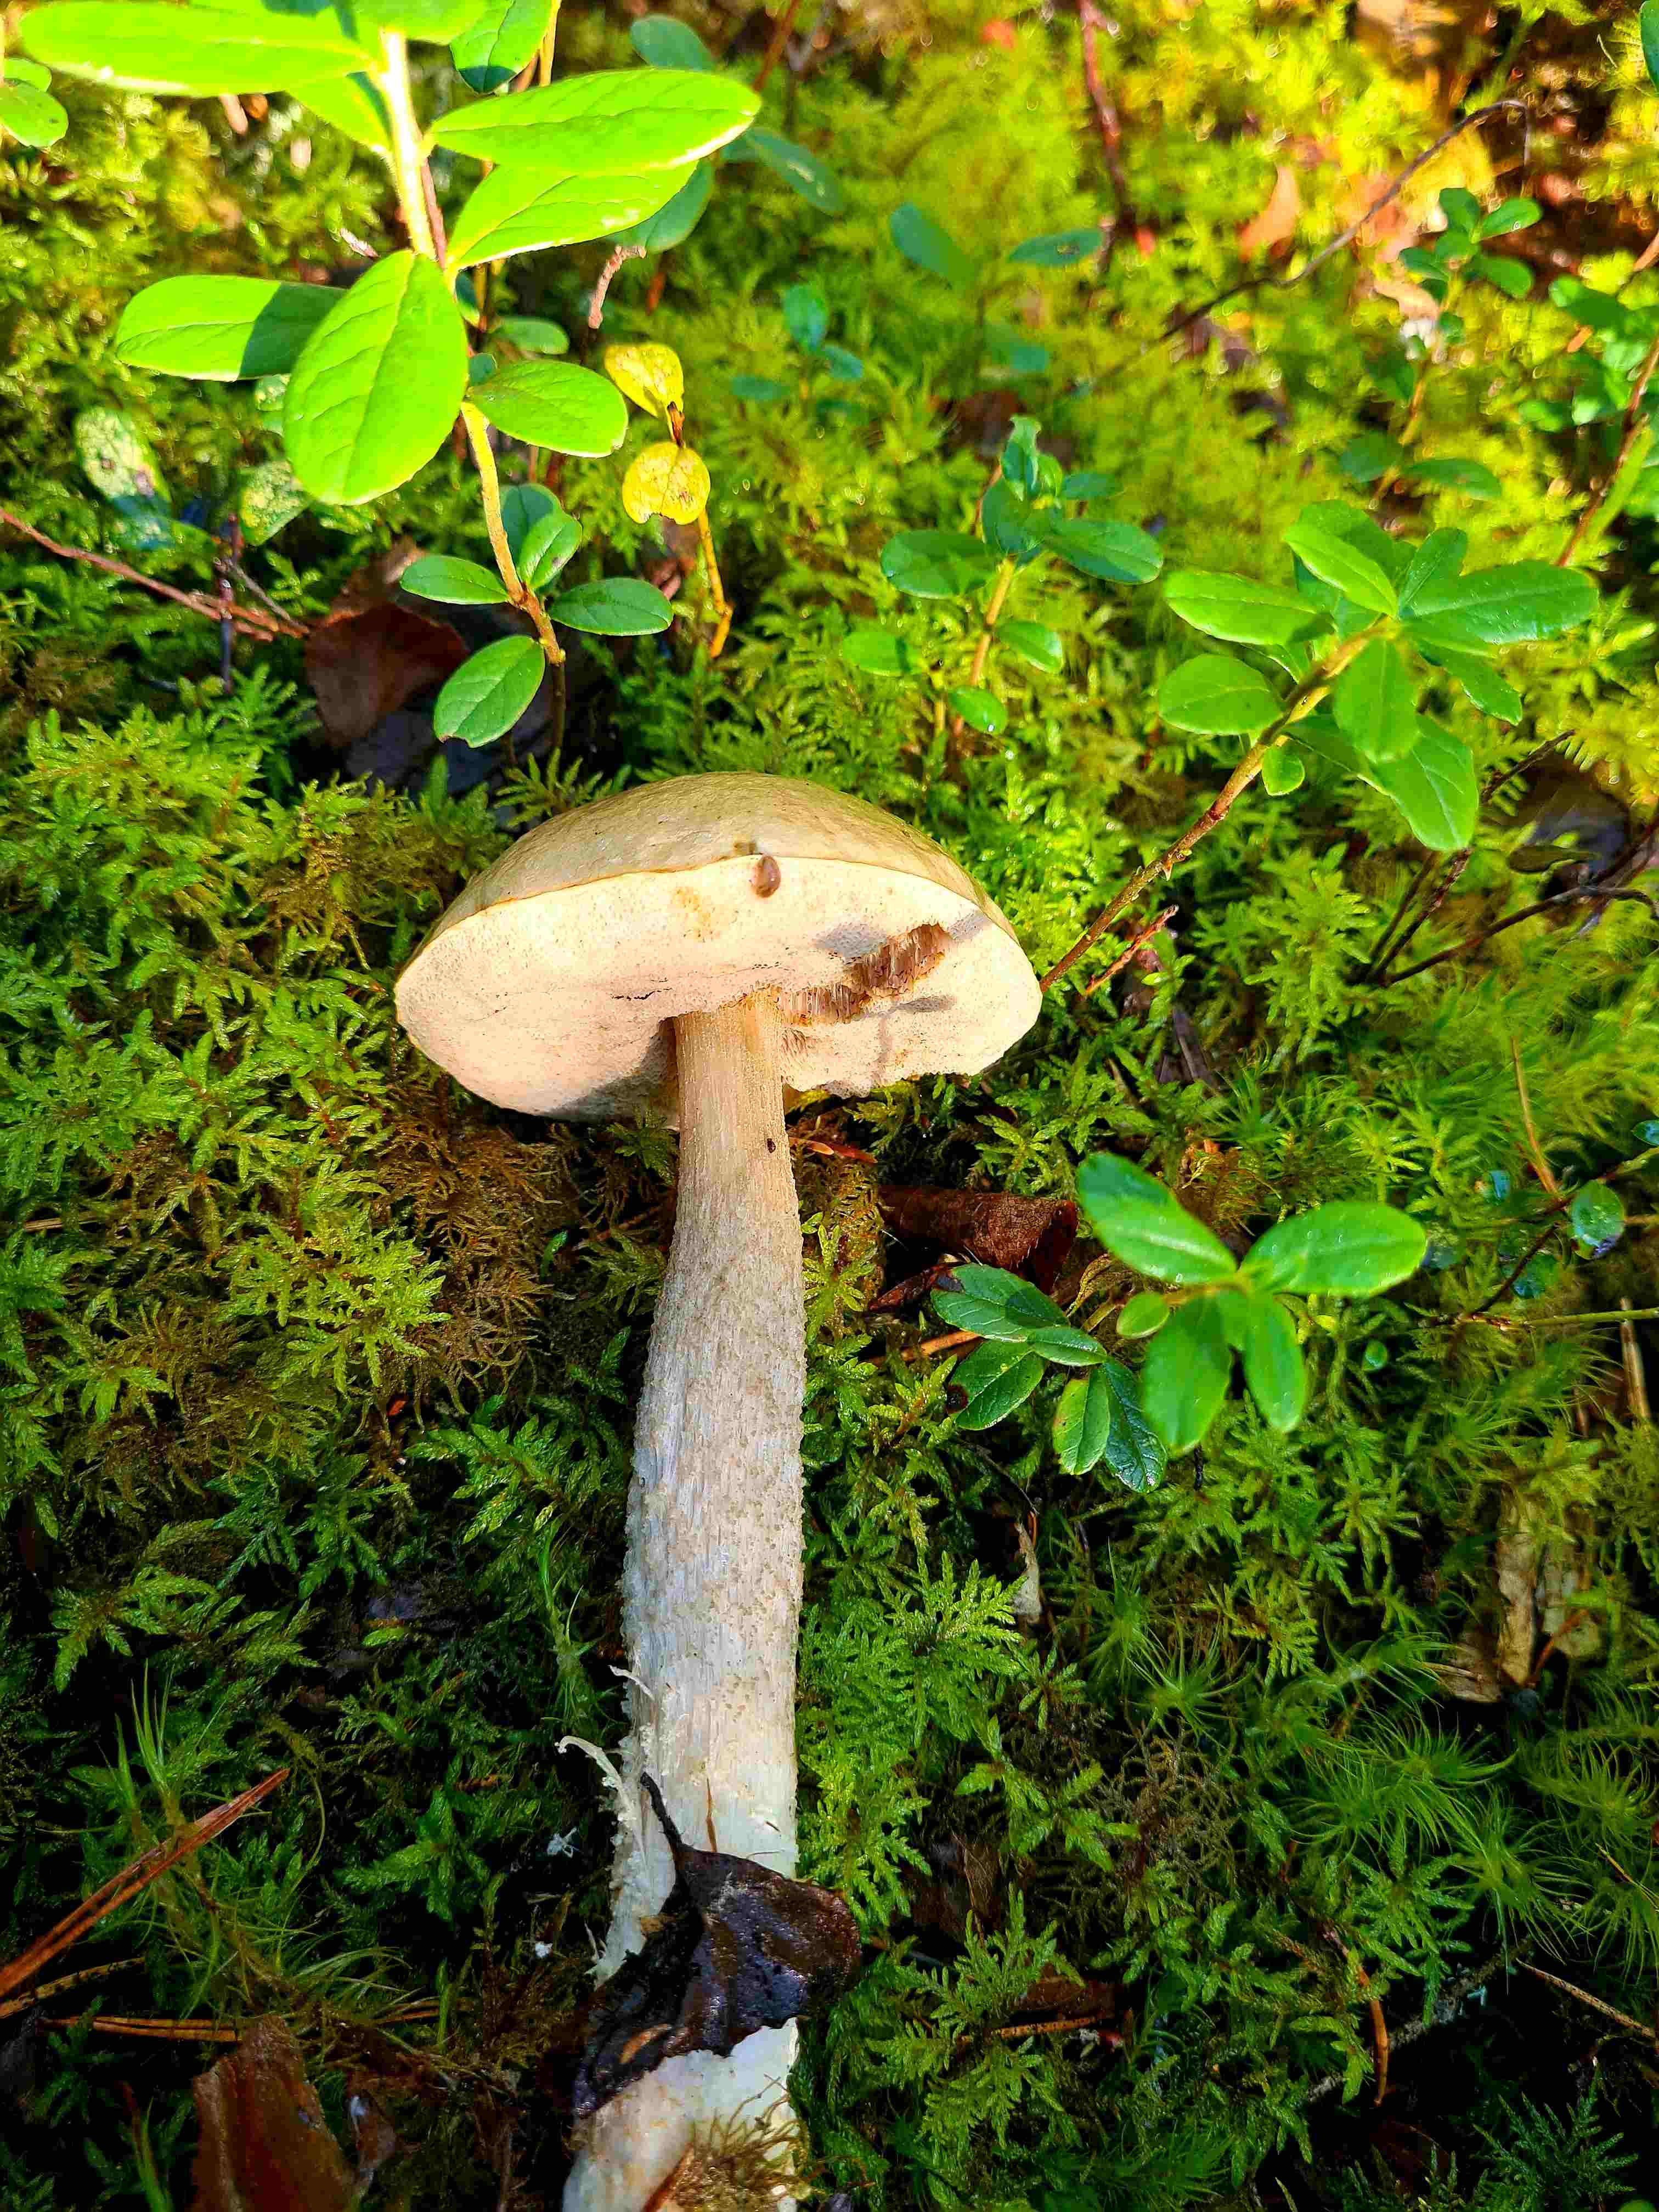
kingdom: Fungi
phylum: Basidiomycota
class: Agaricomycetes
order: Boletales
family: Boletaceae
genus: Leccinum
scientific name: Leccinum
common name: skælrørhat
